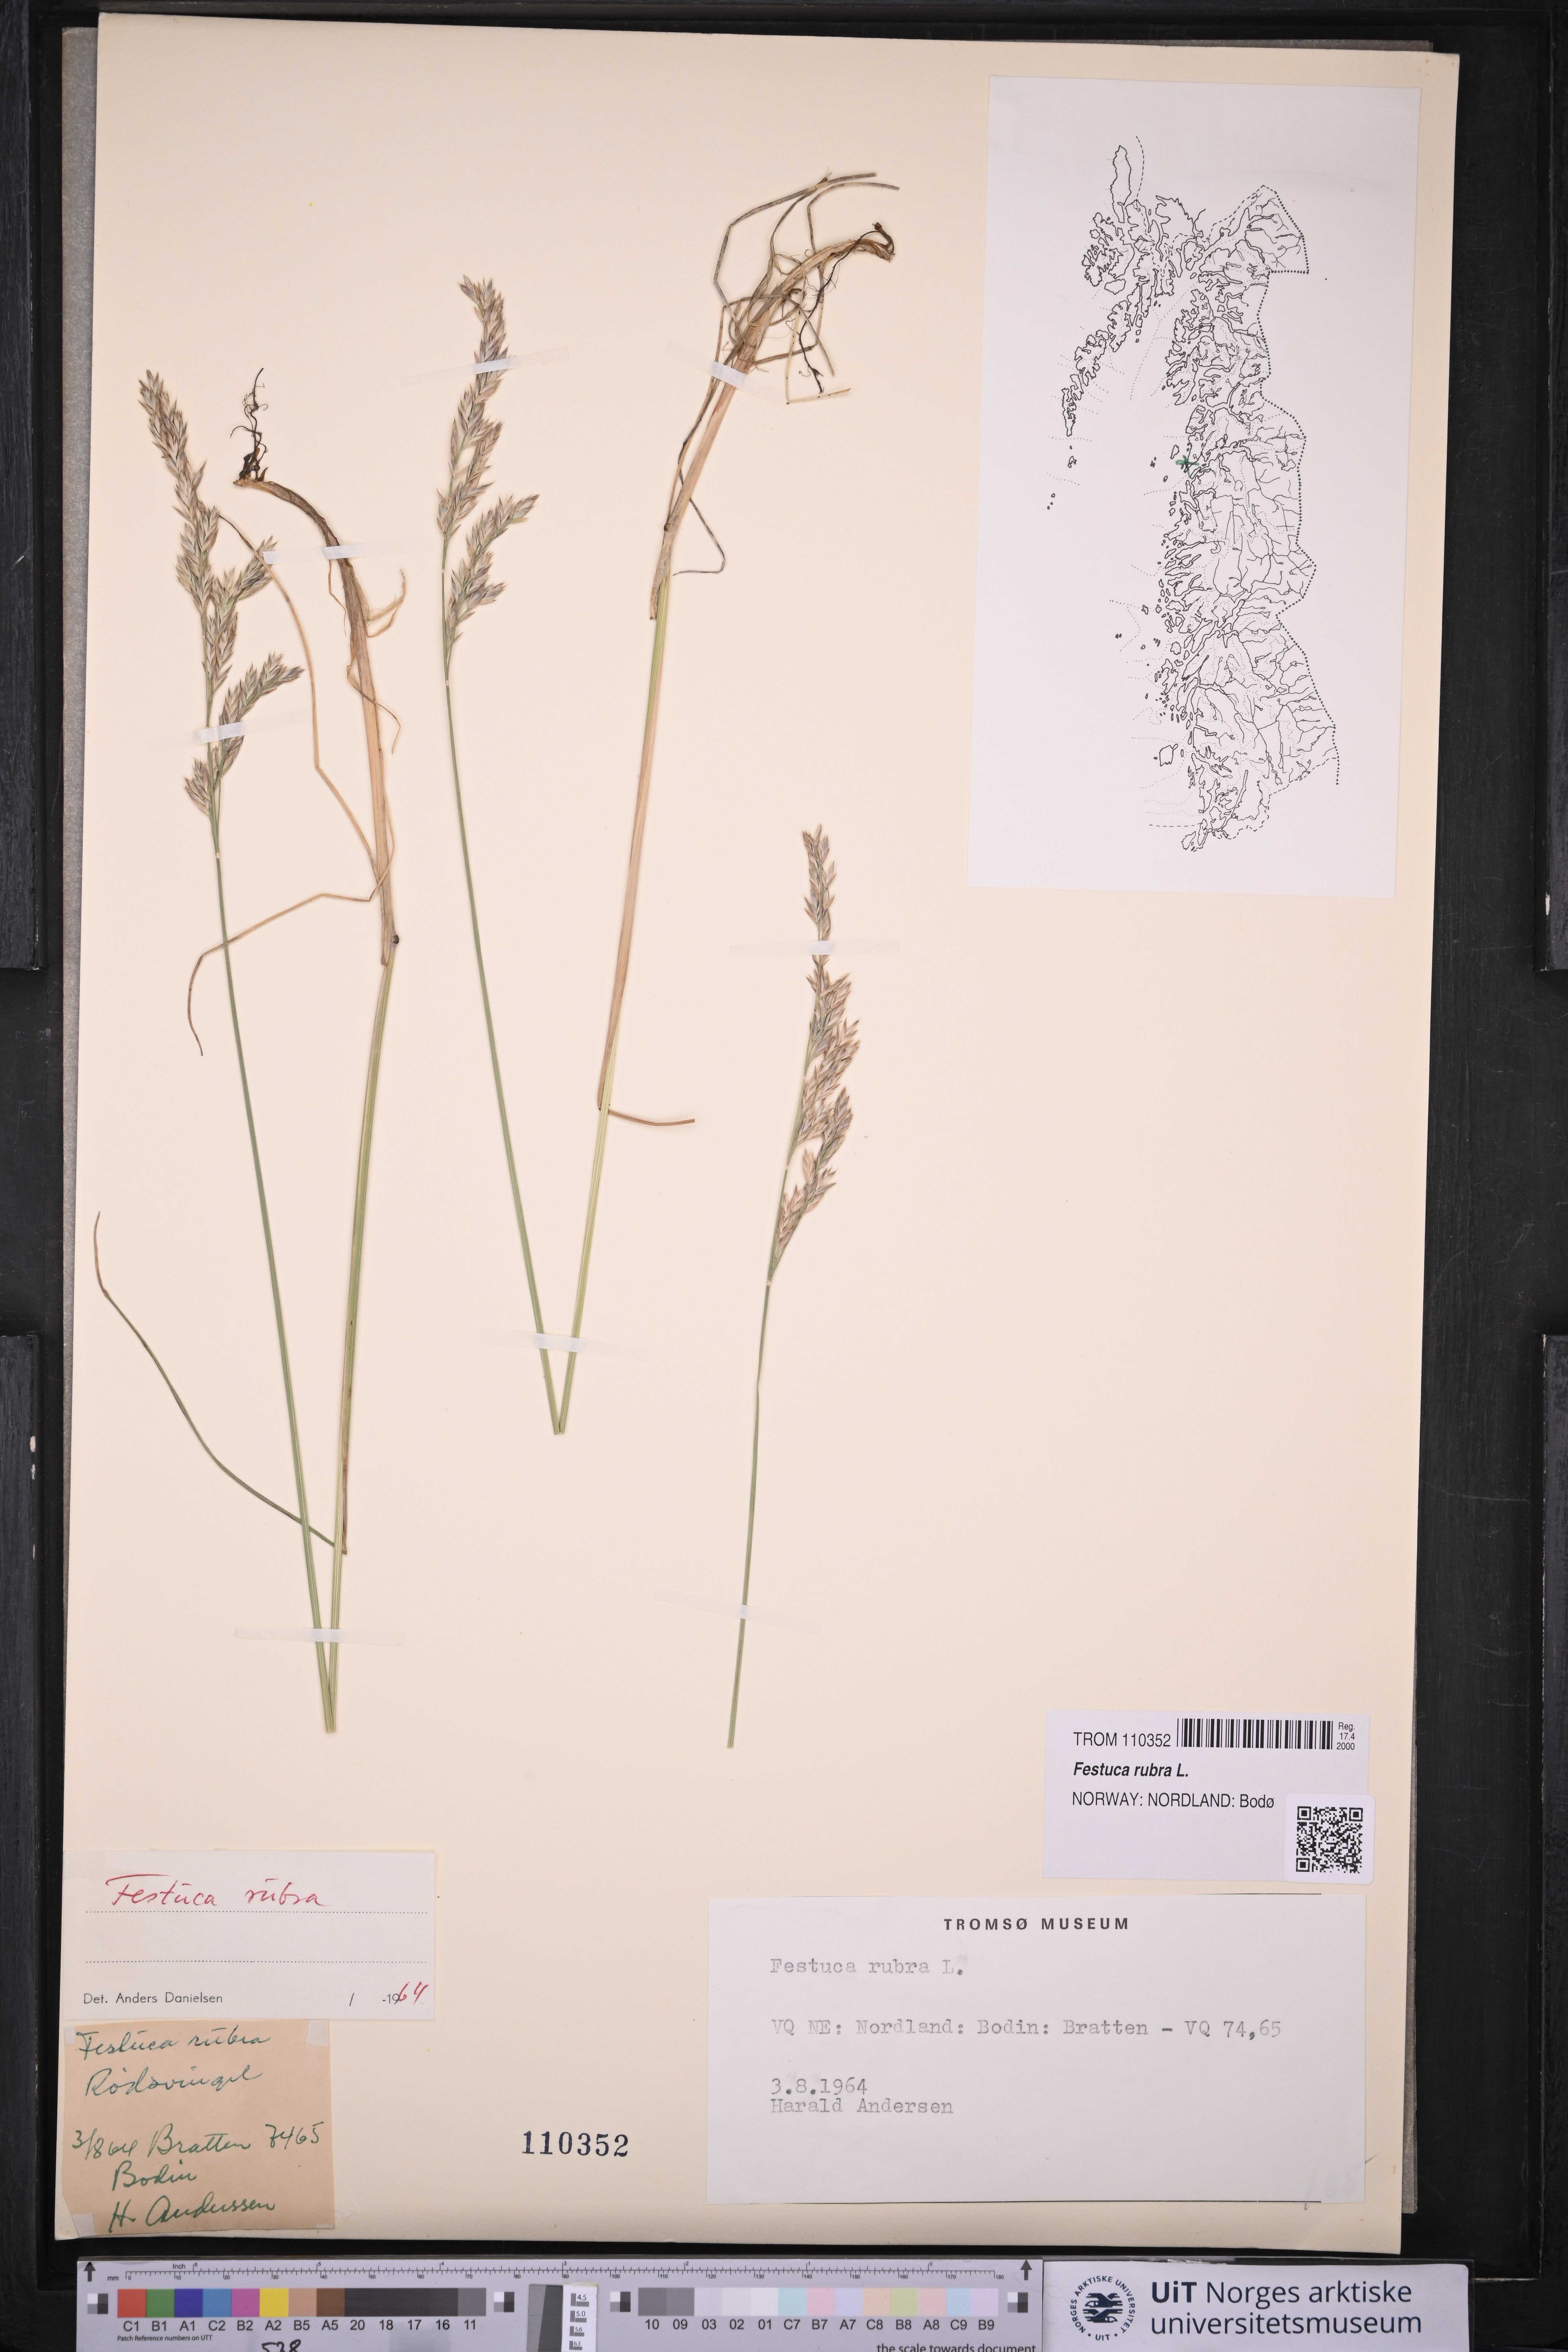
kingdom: Plantae
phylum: Tracheophyta
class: Liliopsida
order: Poales
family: Poaceae
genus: Festuca
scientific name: Festuca rubra
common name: Red fescue
